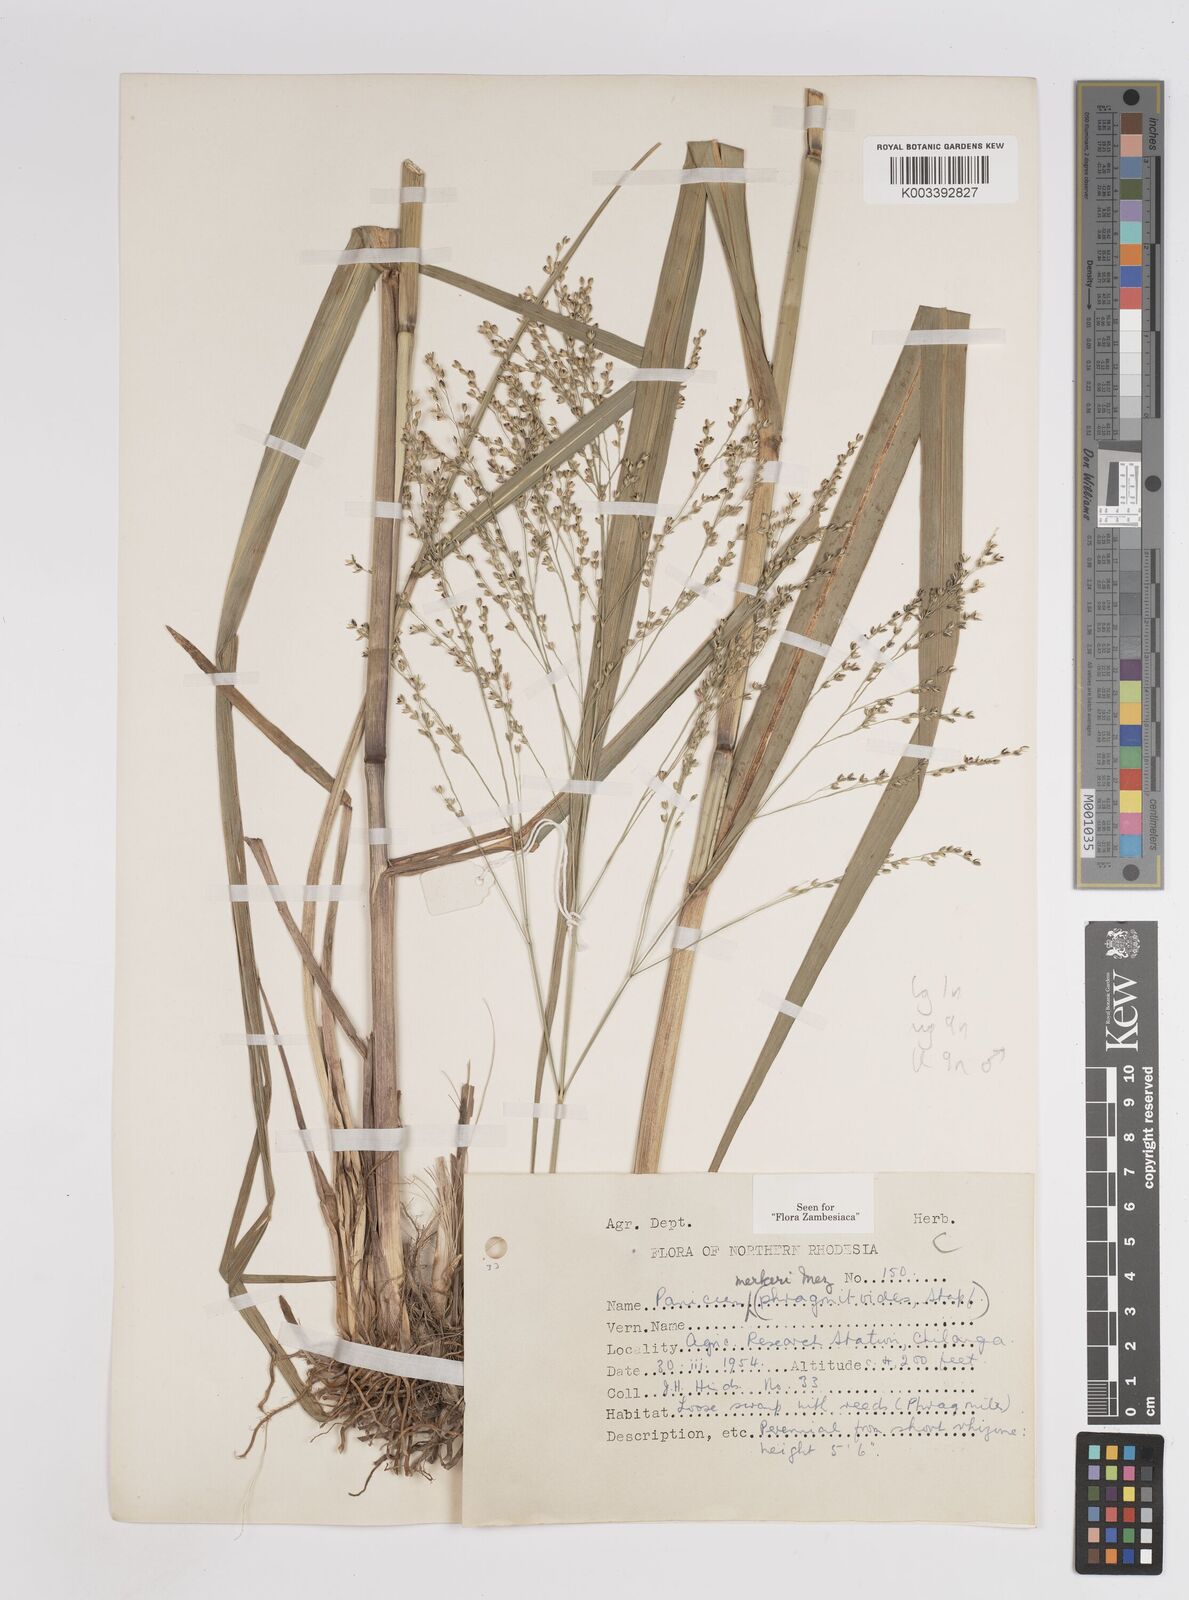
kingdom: Plantae
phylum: Tracheophyta
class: Liliopsida
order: Poales
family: Poaceae
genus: Panicum
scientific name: Panicum merkeri
